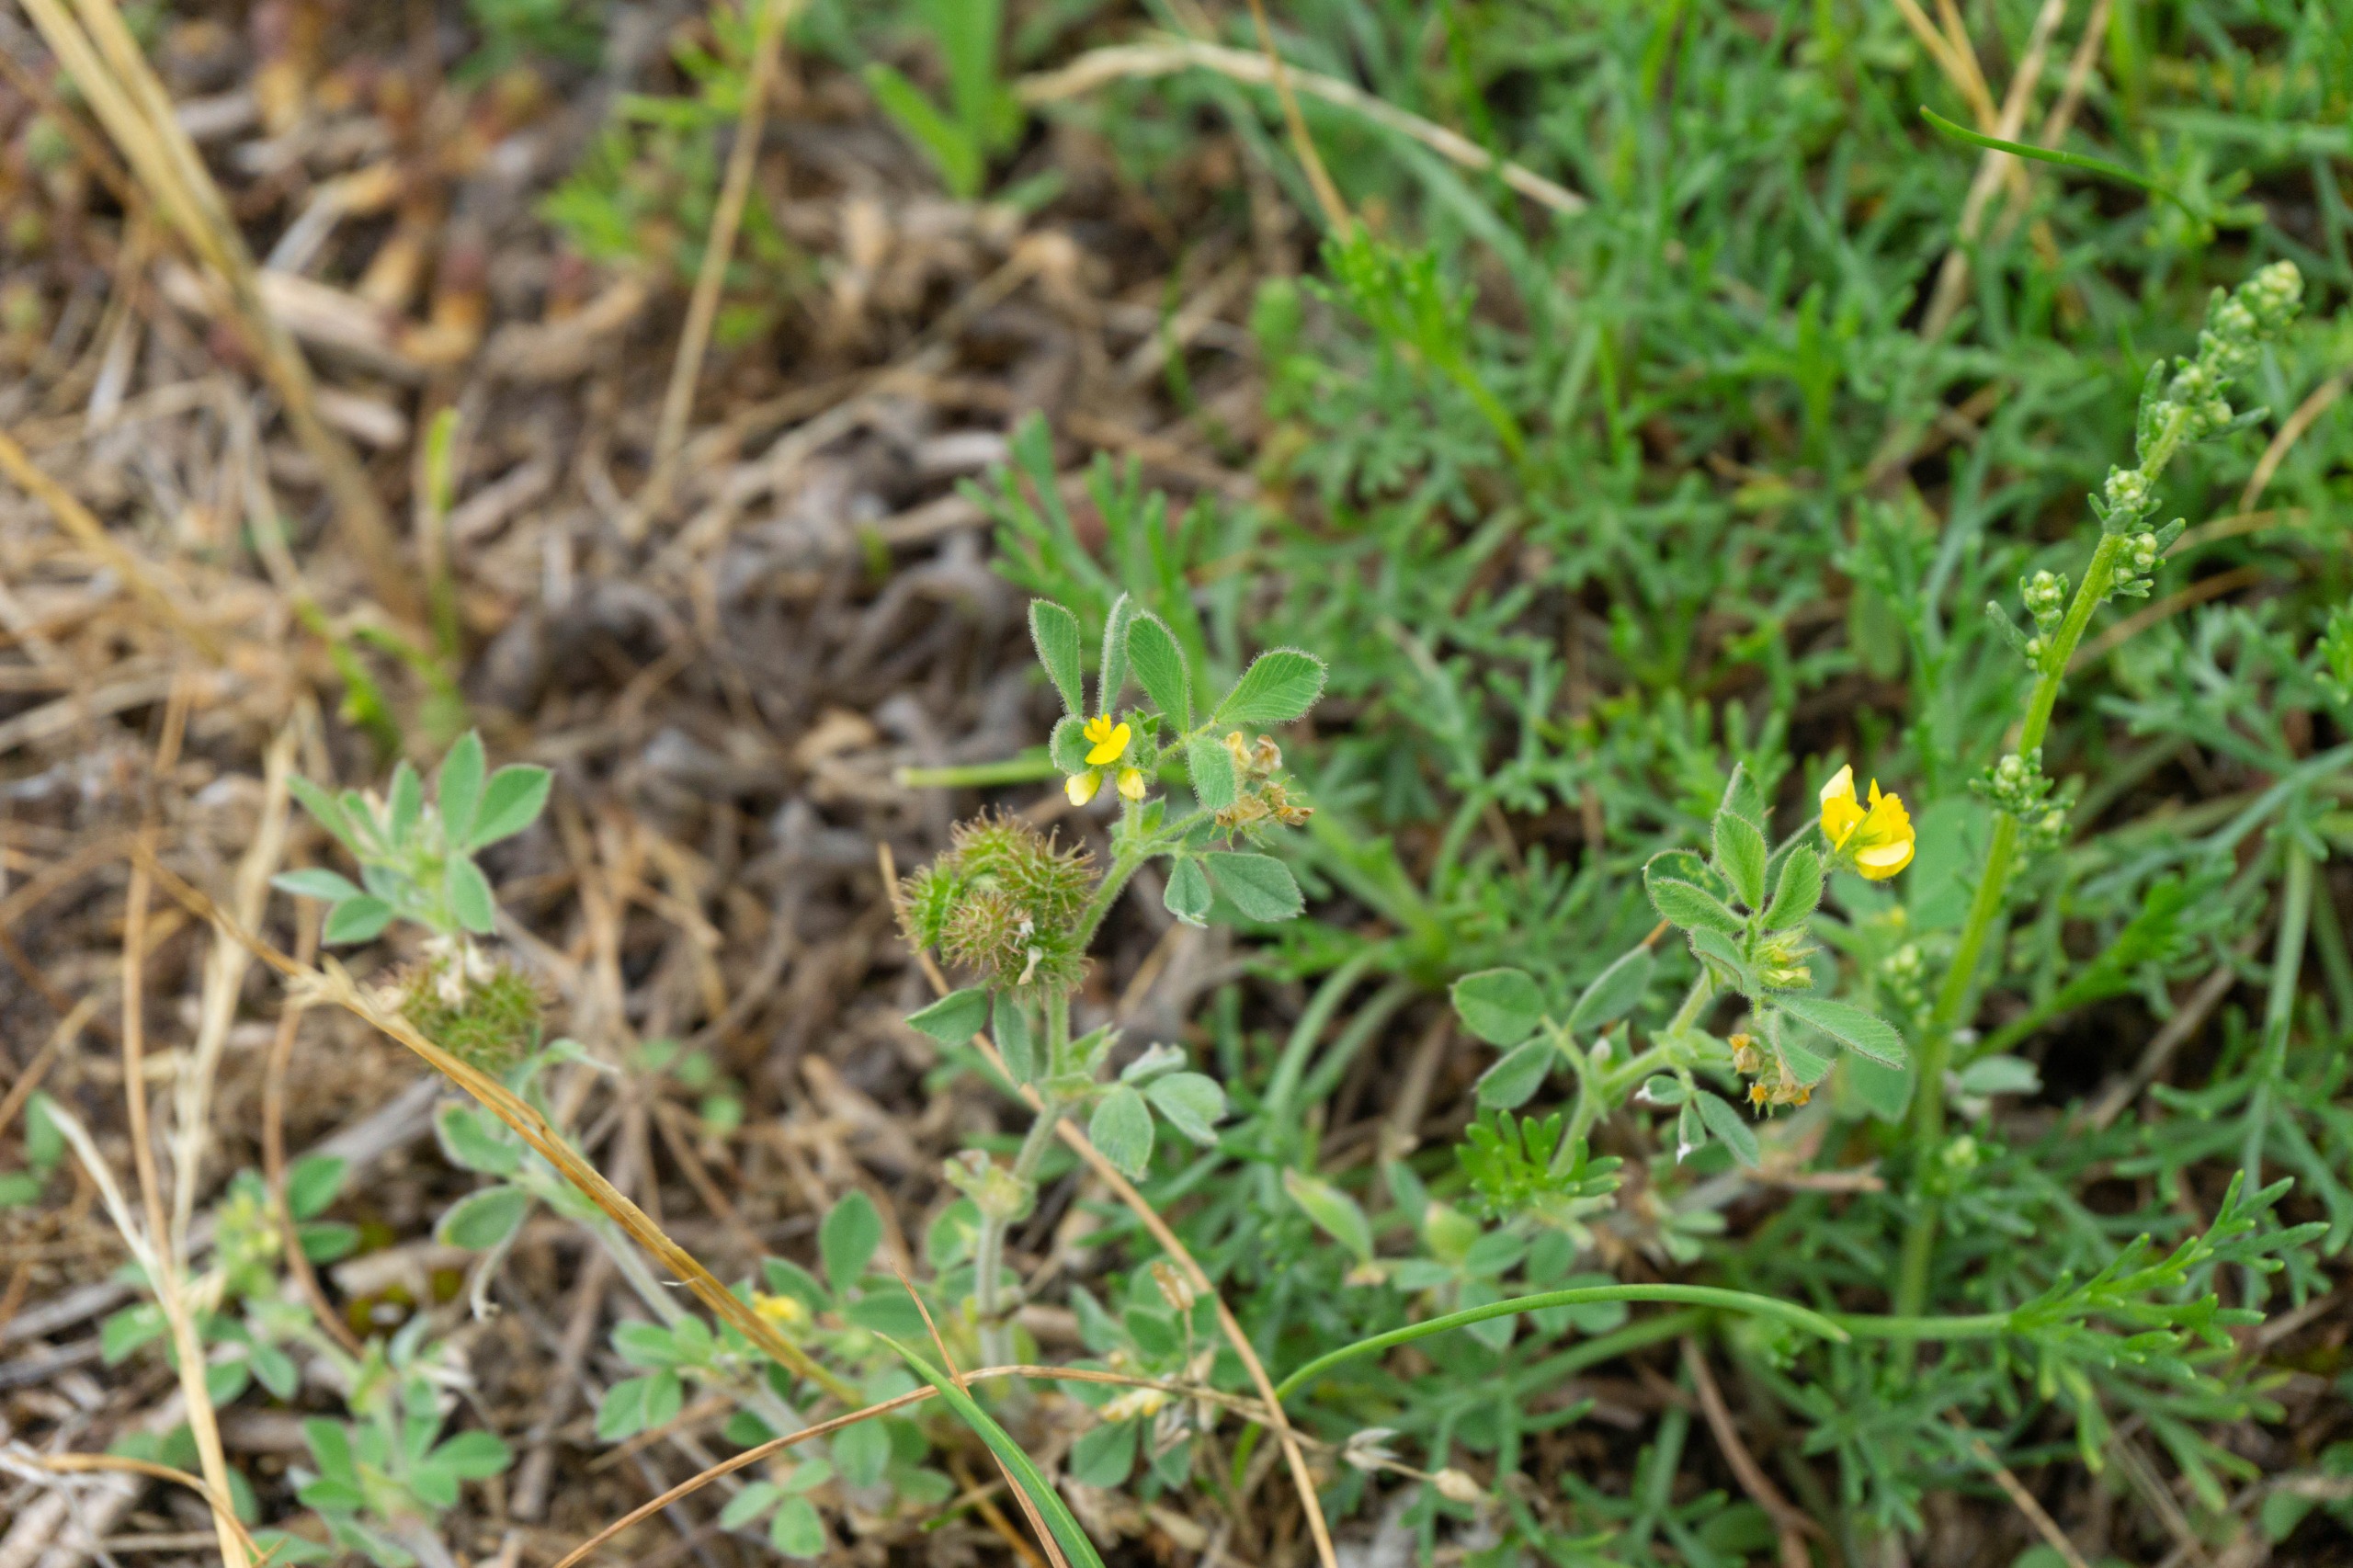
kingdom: Plantae
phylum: Tracheophyta
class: Magnoliopsida
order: Fabales
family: Fabaceae
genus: Medicago
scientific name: Medicago minima
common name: Liden sneglebælg
